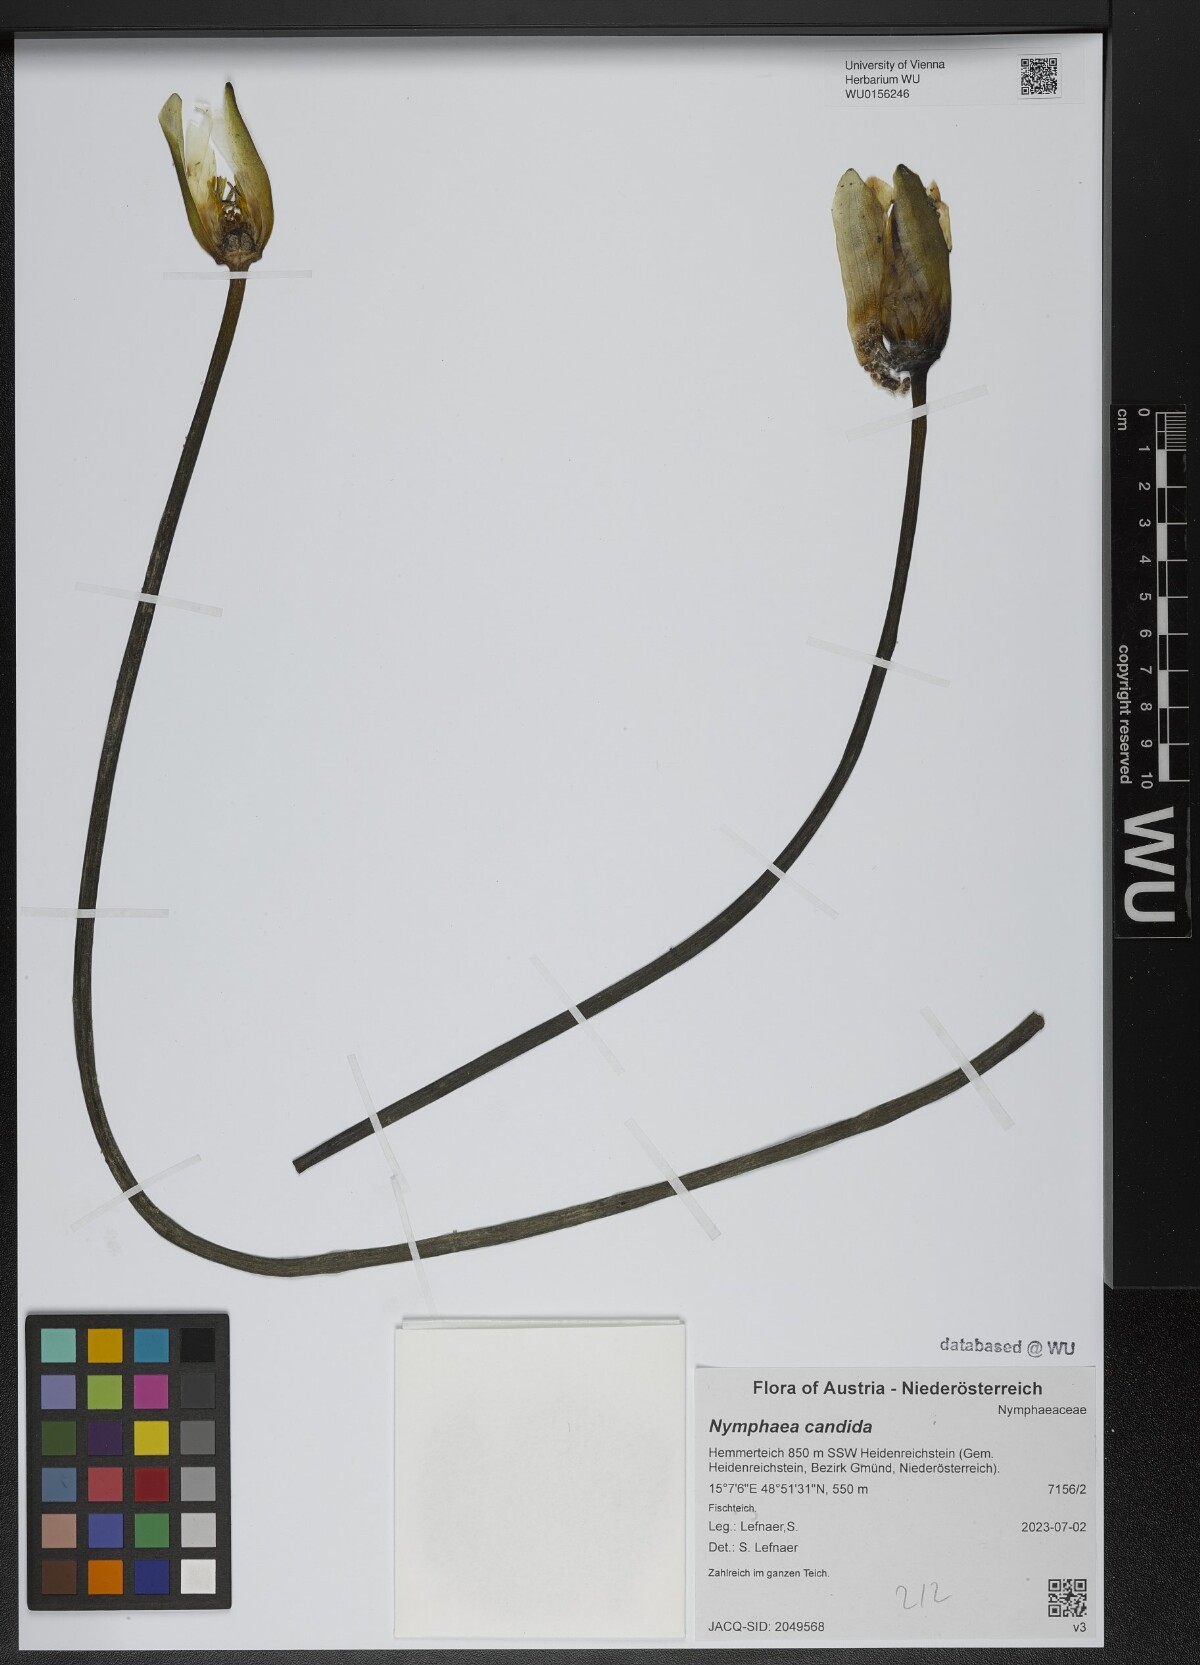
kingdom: Plantae
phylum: Tracheophyta
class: Magnoliopsida
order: Nymphaeales
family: Nymphaeaceae
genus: Nymphaea
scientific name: Nymphaea candida
